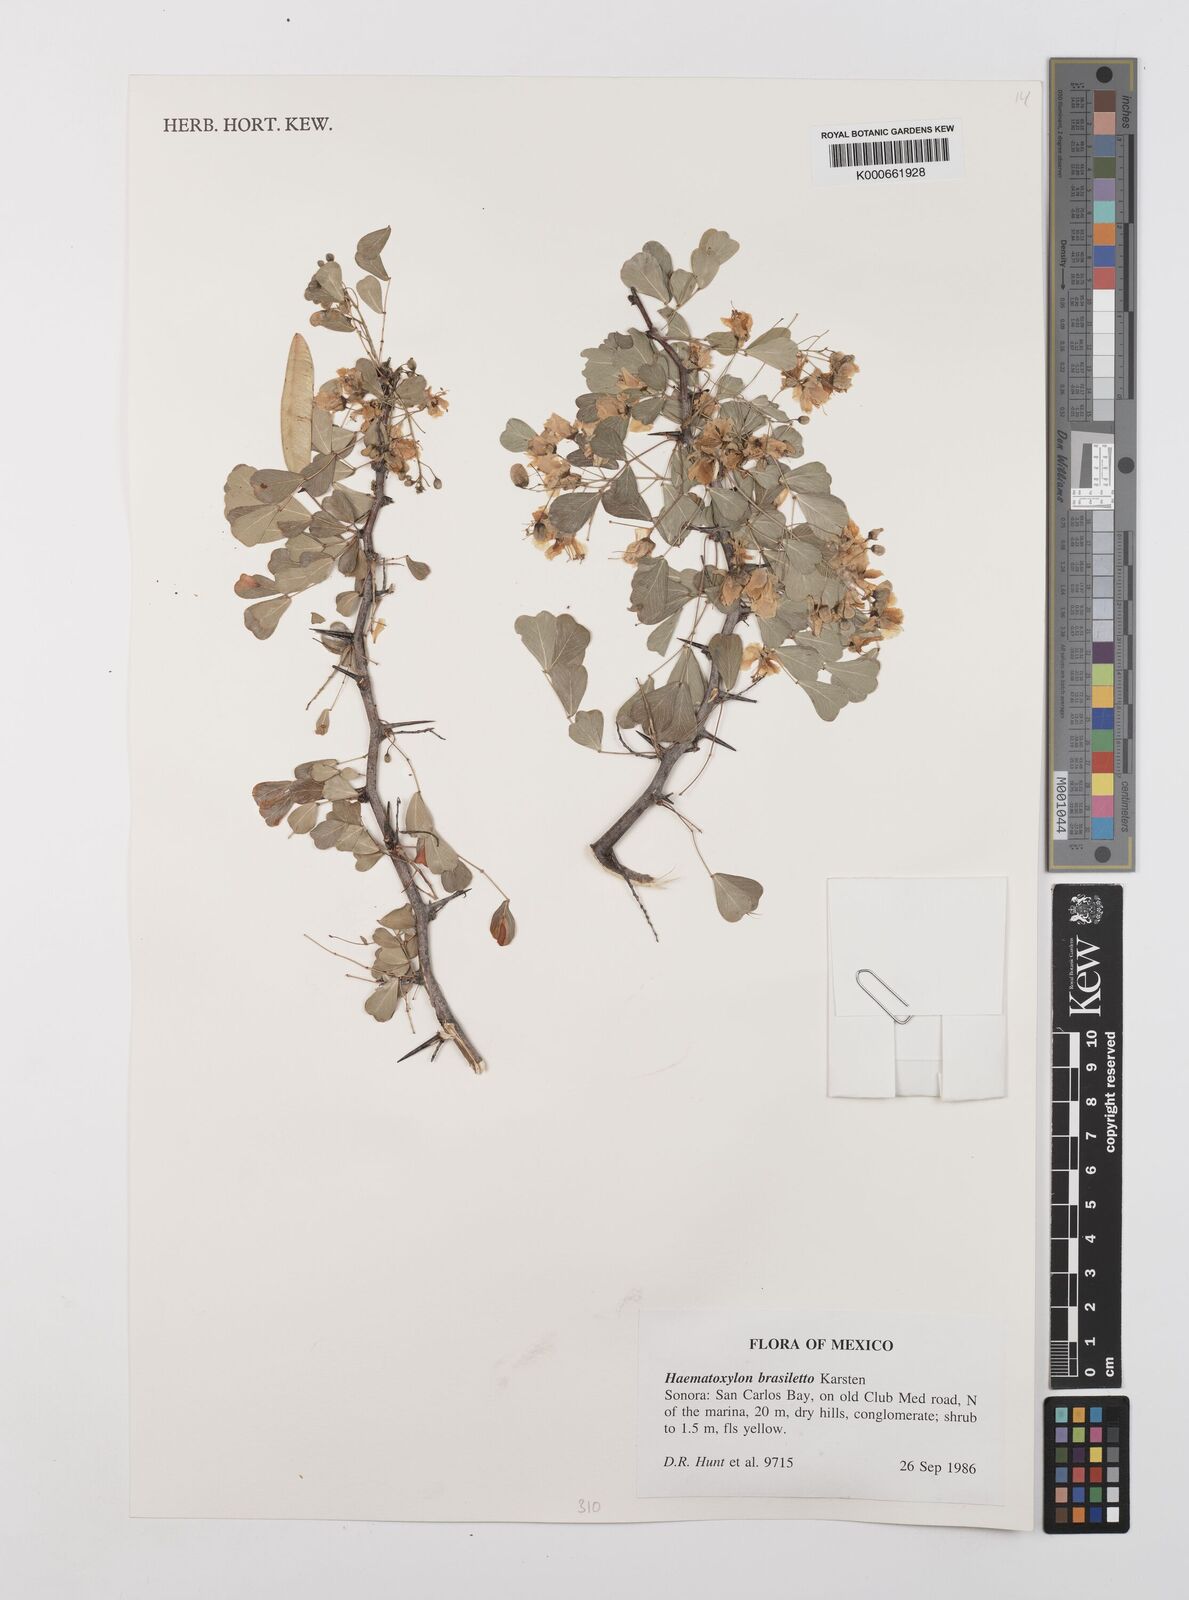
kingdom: Plantae
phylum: Tracheophyta
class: Magnoliopsida
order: Fabales
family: Fabaceae
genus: Haematoxylum
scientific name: Haematoxylum brasiletto
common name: Peachwood
